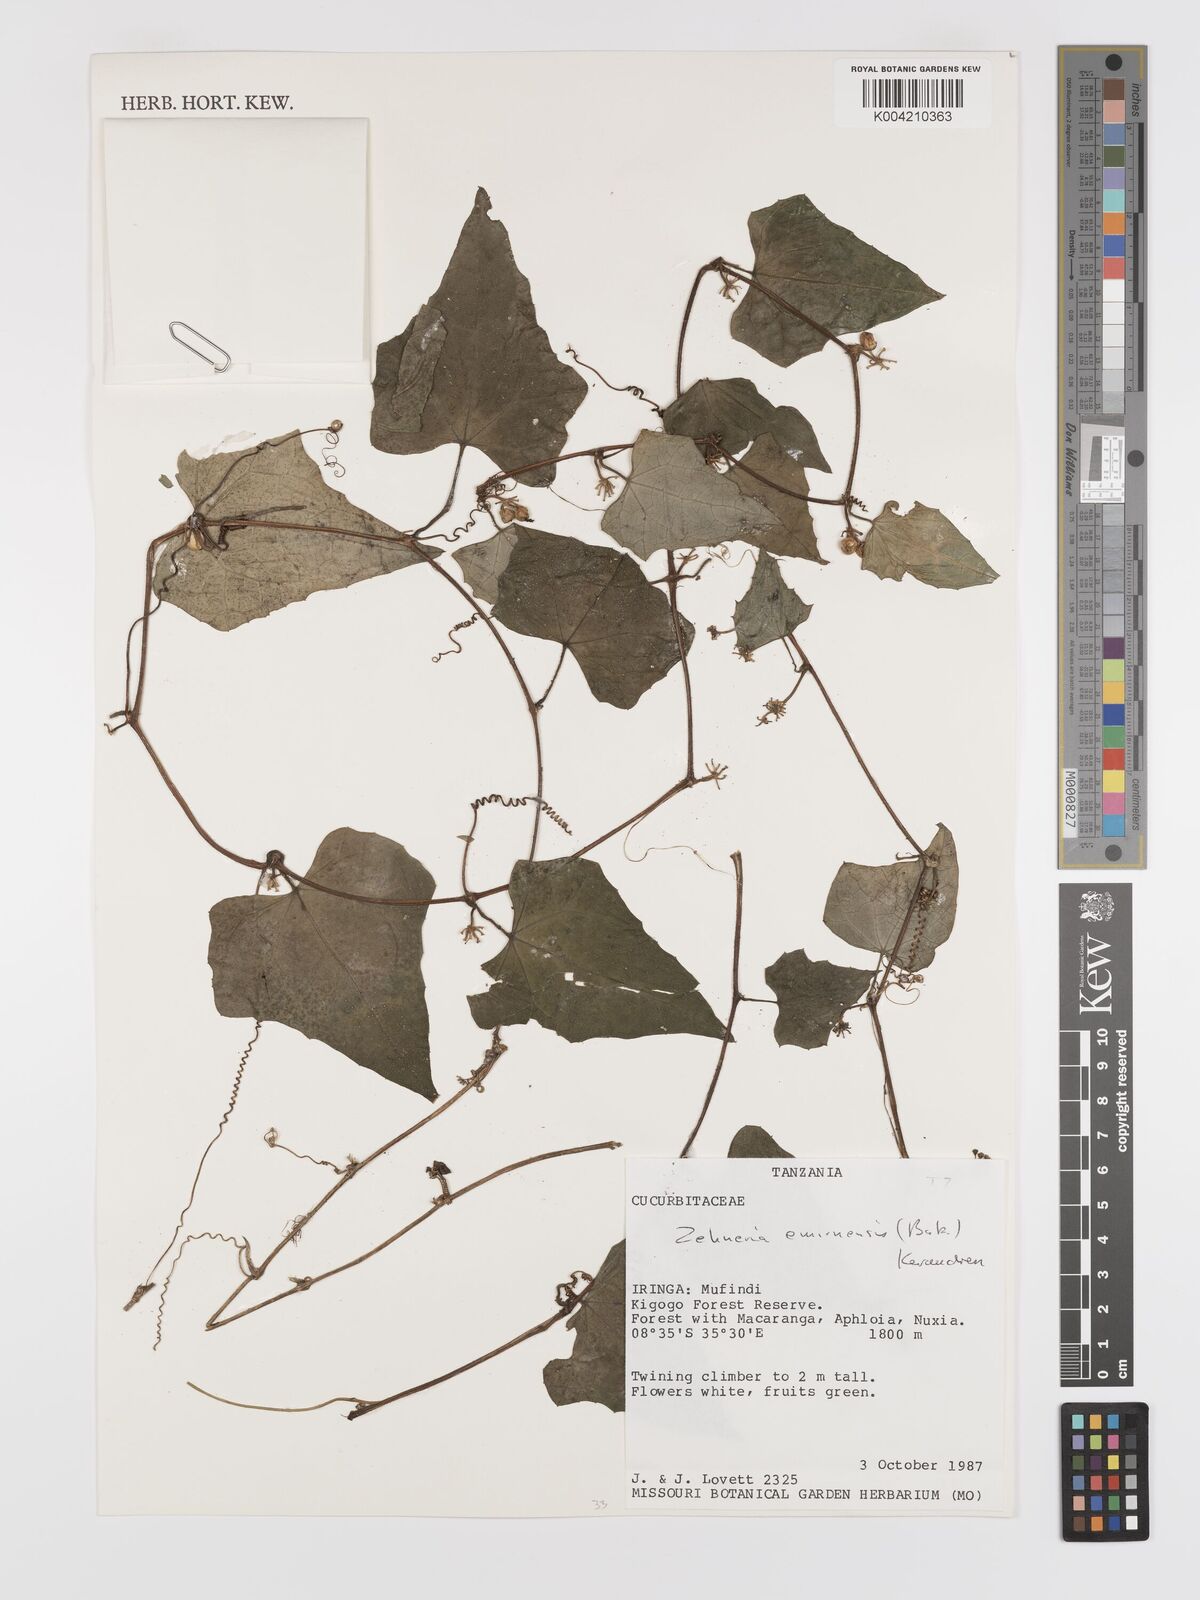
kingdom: Plantae
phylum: Tracheophyta
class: Magnoliopsida
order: Cucurbitales
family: Cucurbitaceae
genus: Zehneria
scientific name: Zehneria emirnensis
